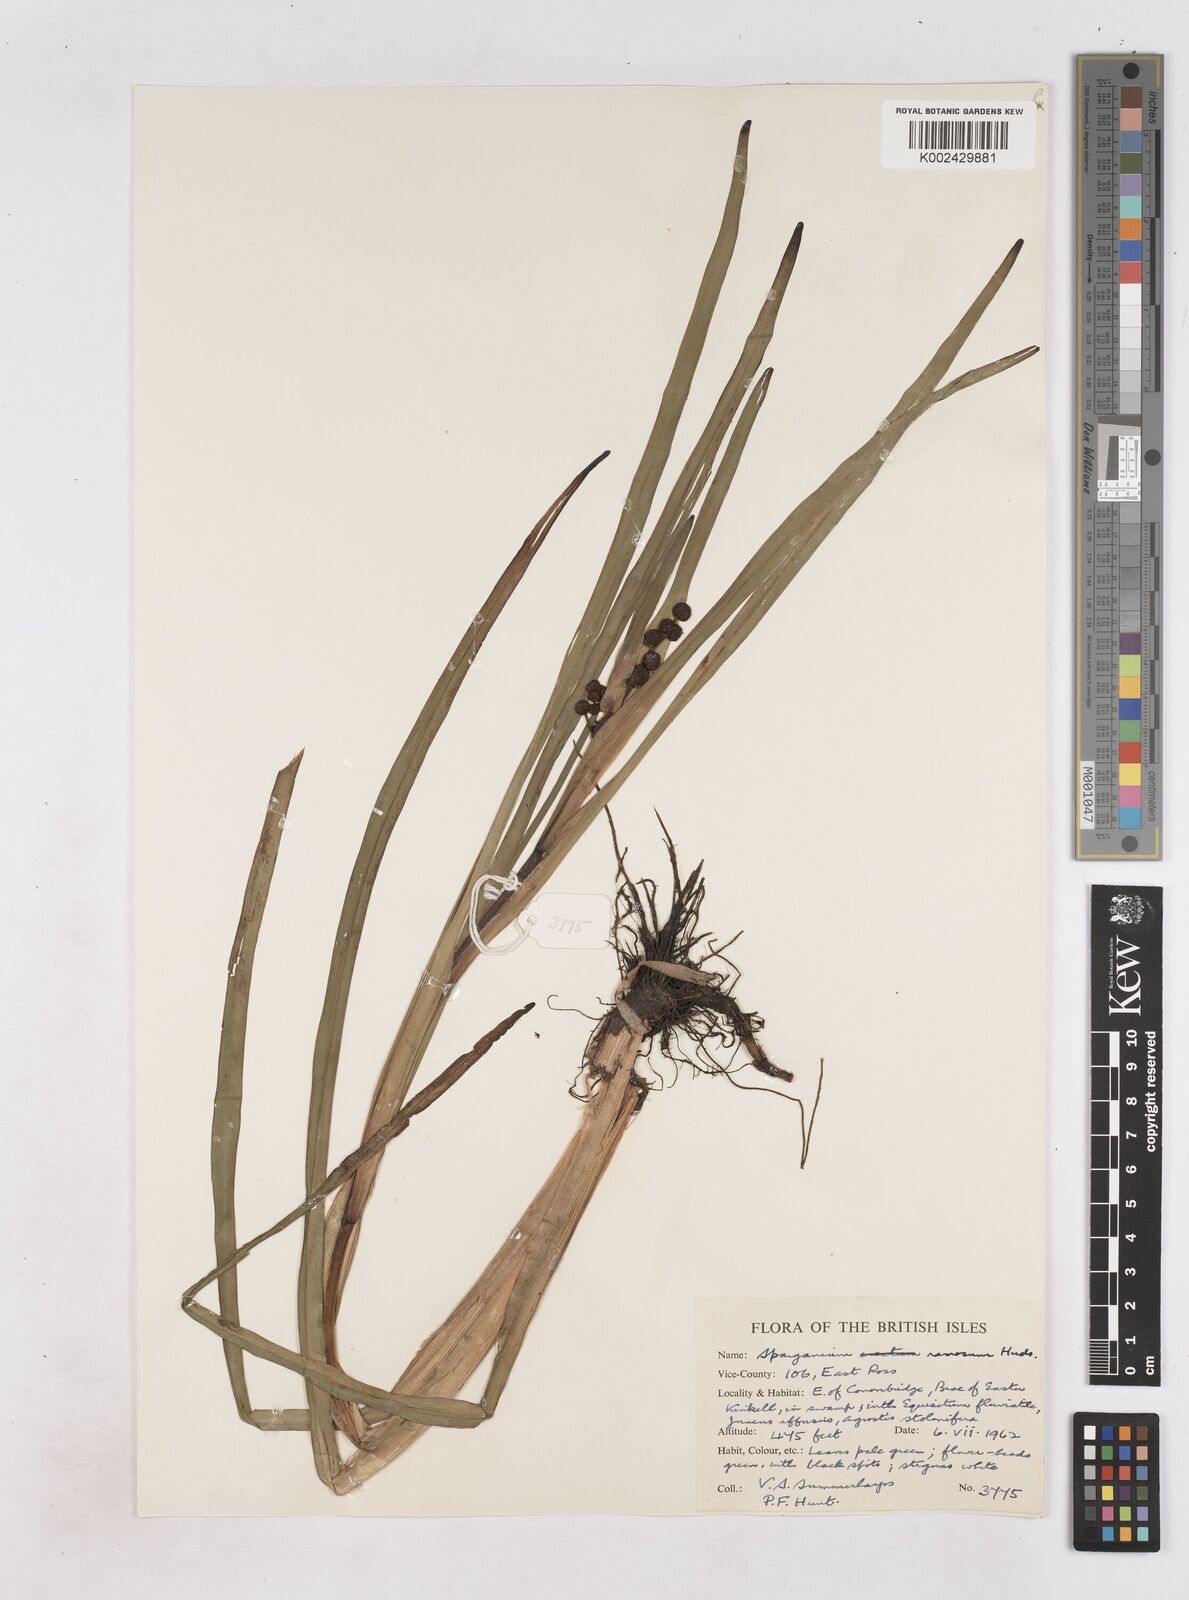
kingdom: Plantae
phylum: Tracheophyta
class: Liliopsida
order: Poales
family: Typhaceae
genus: Sparganium
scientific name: Sparganium erectum
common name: Branched bur-reed
